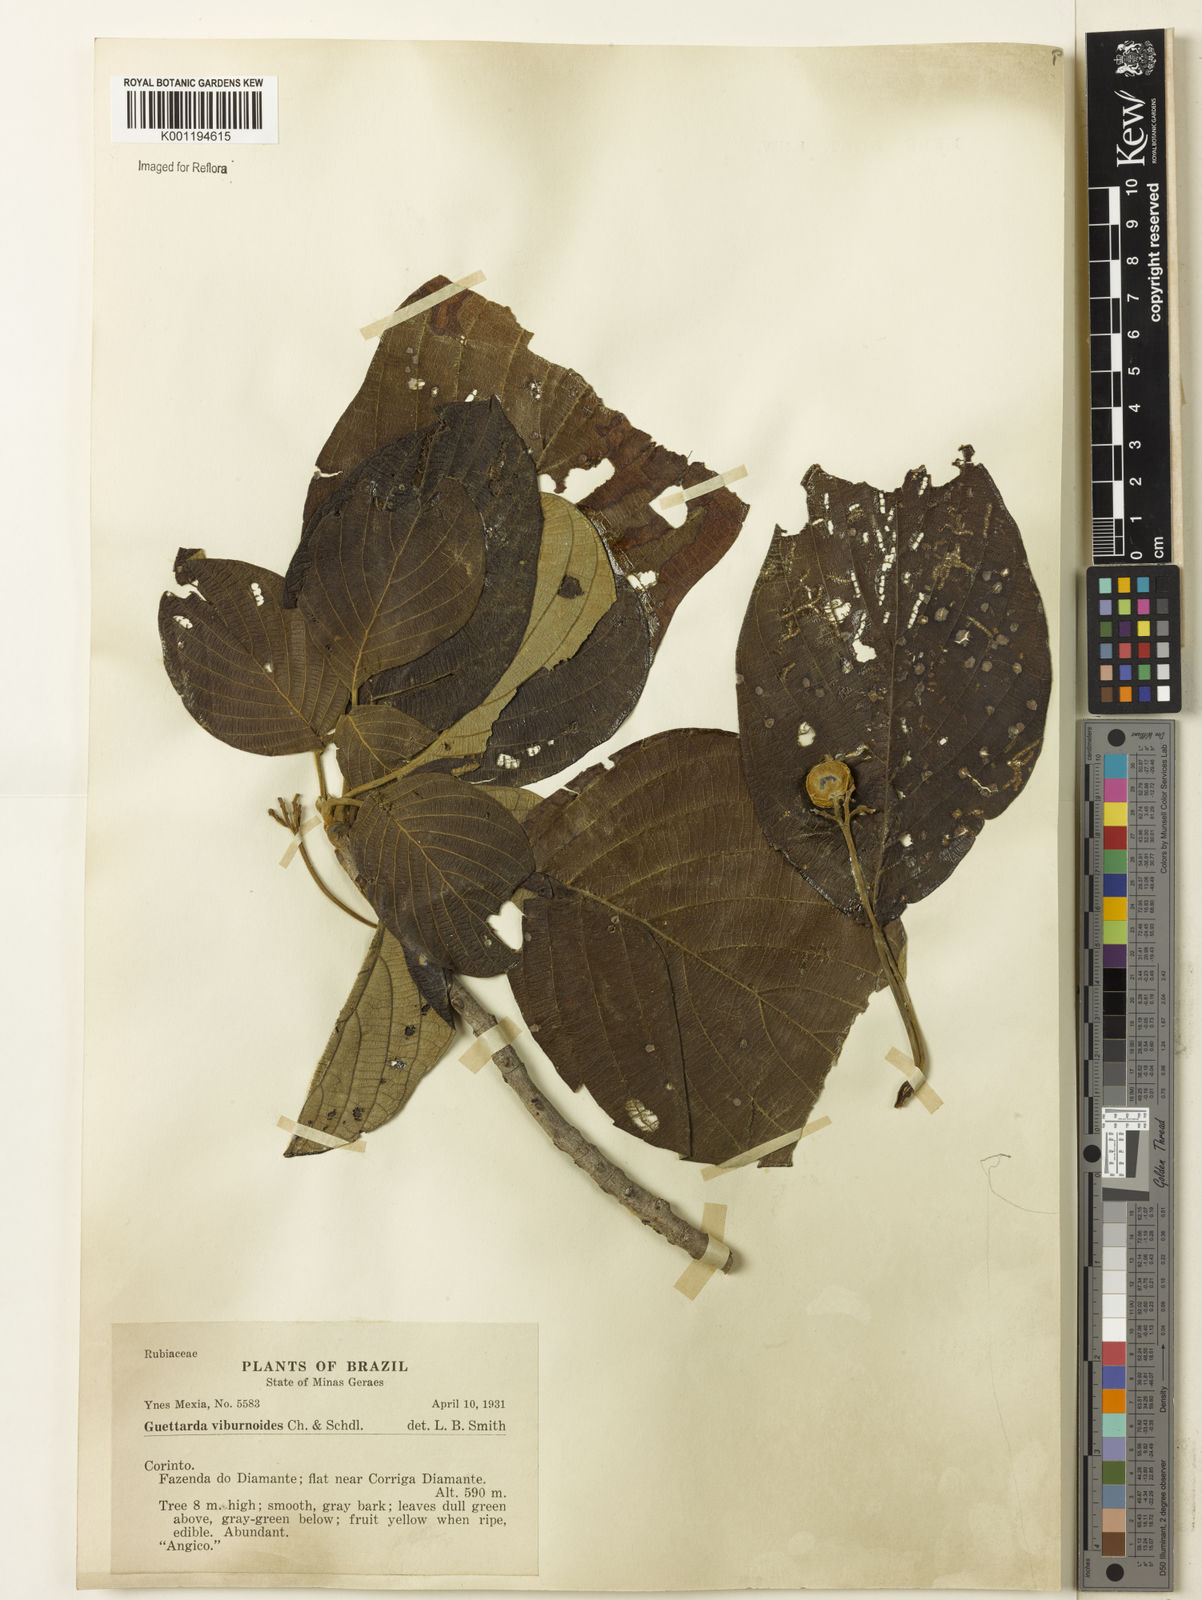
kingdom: Plantae
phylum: Tracheophyta
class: Magnoliopsida
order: Gentianales
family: Rubiaceae
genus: Guettarda
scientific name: Guettarda viburnoides
